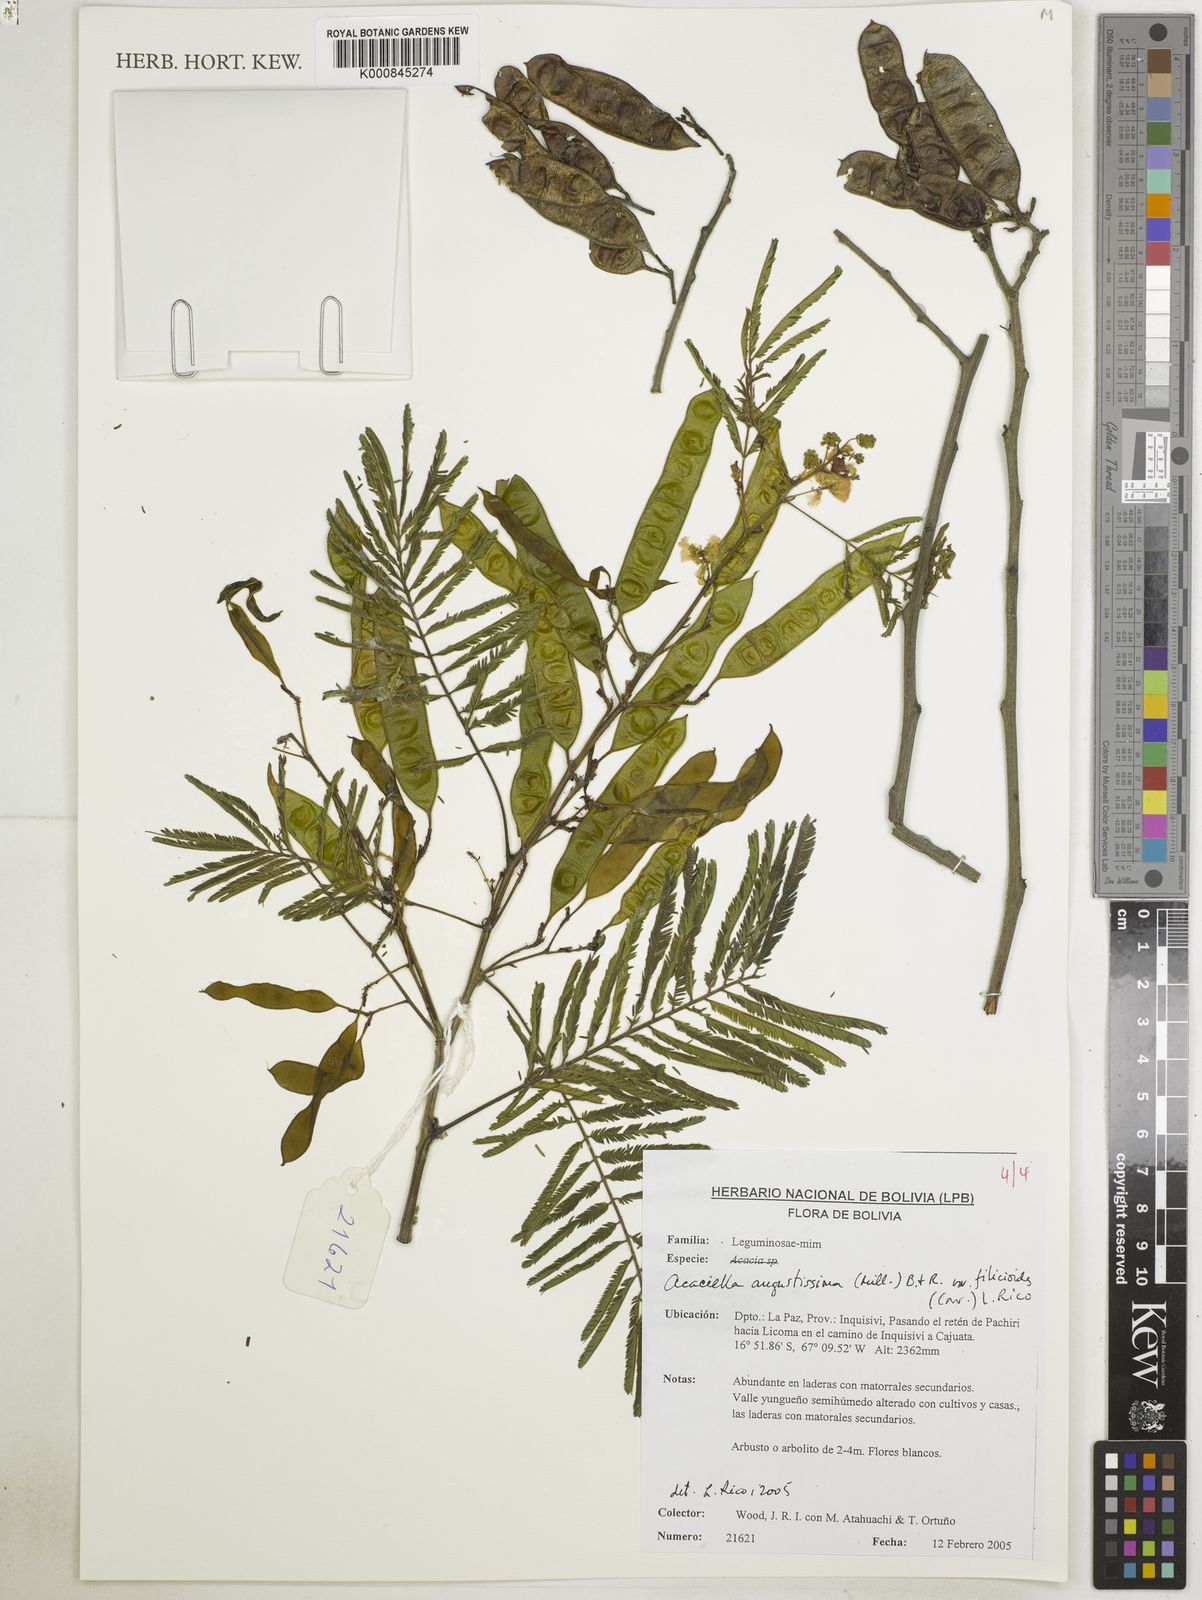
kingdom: Plantae
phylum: Tracheophyta
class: Magnoliopsida
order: Fabales
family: Fabaceae
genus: Acaciella
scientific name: Acaciella angustissima
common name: Prairie acacia
